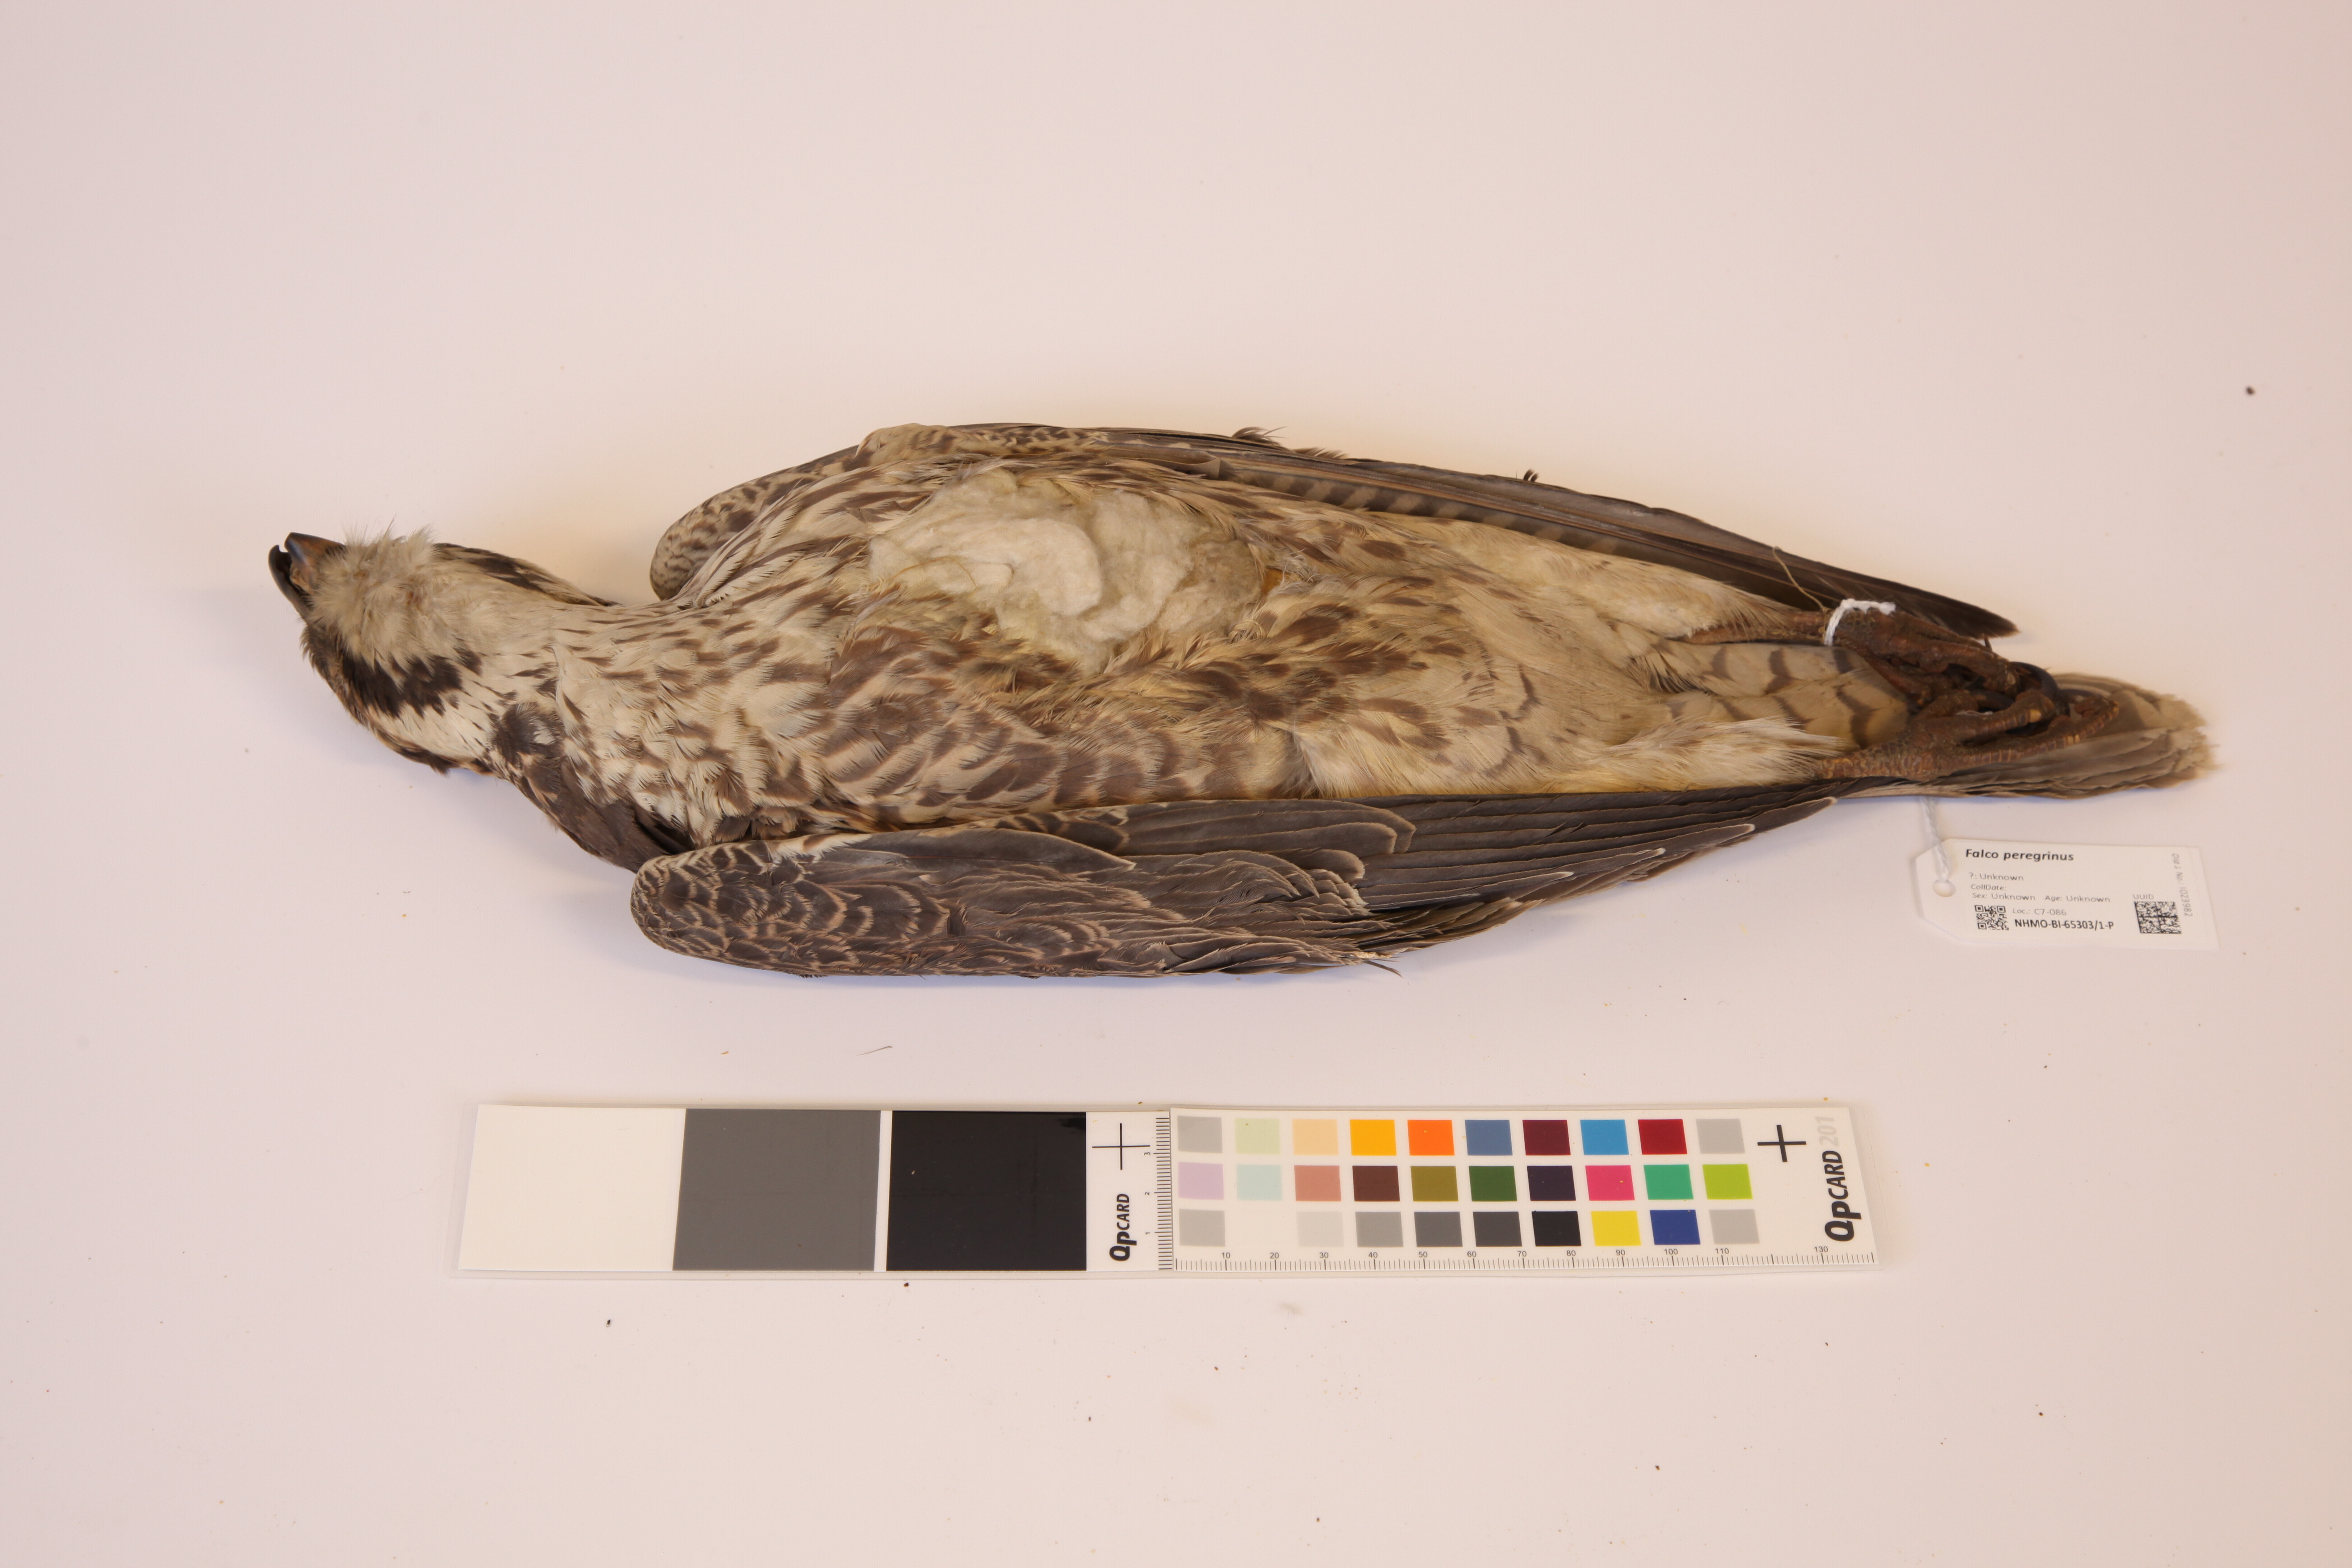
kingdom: Animalia
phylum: Chordata
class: Aves
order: Falconiformes
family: Falconidae
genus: Falco
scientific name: Falco peregrinus
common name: Peregrine falcon
